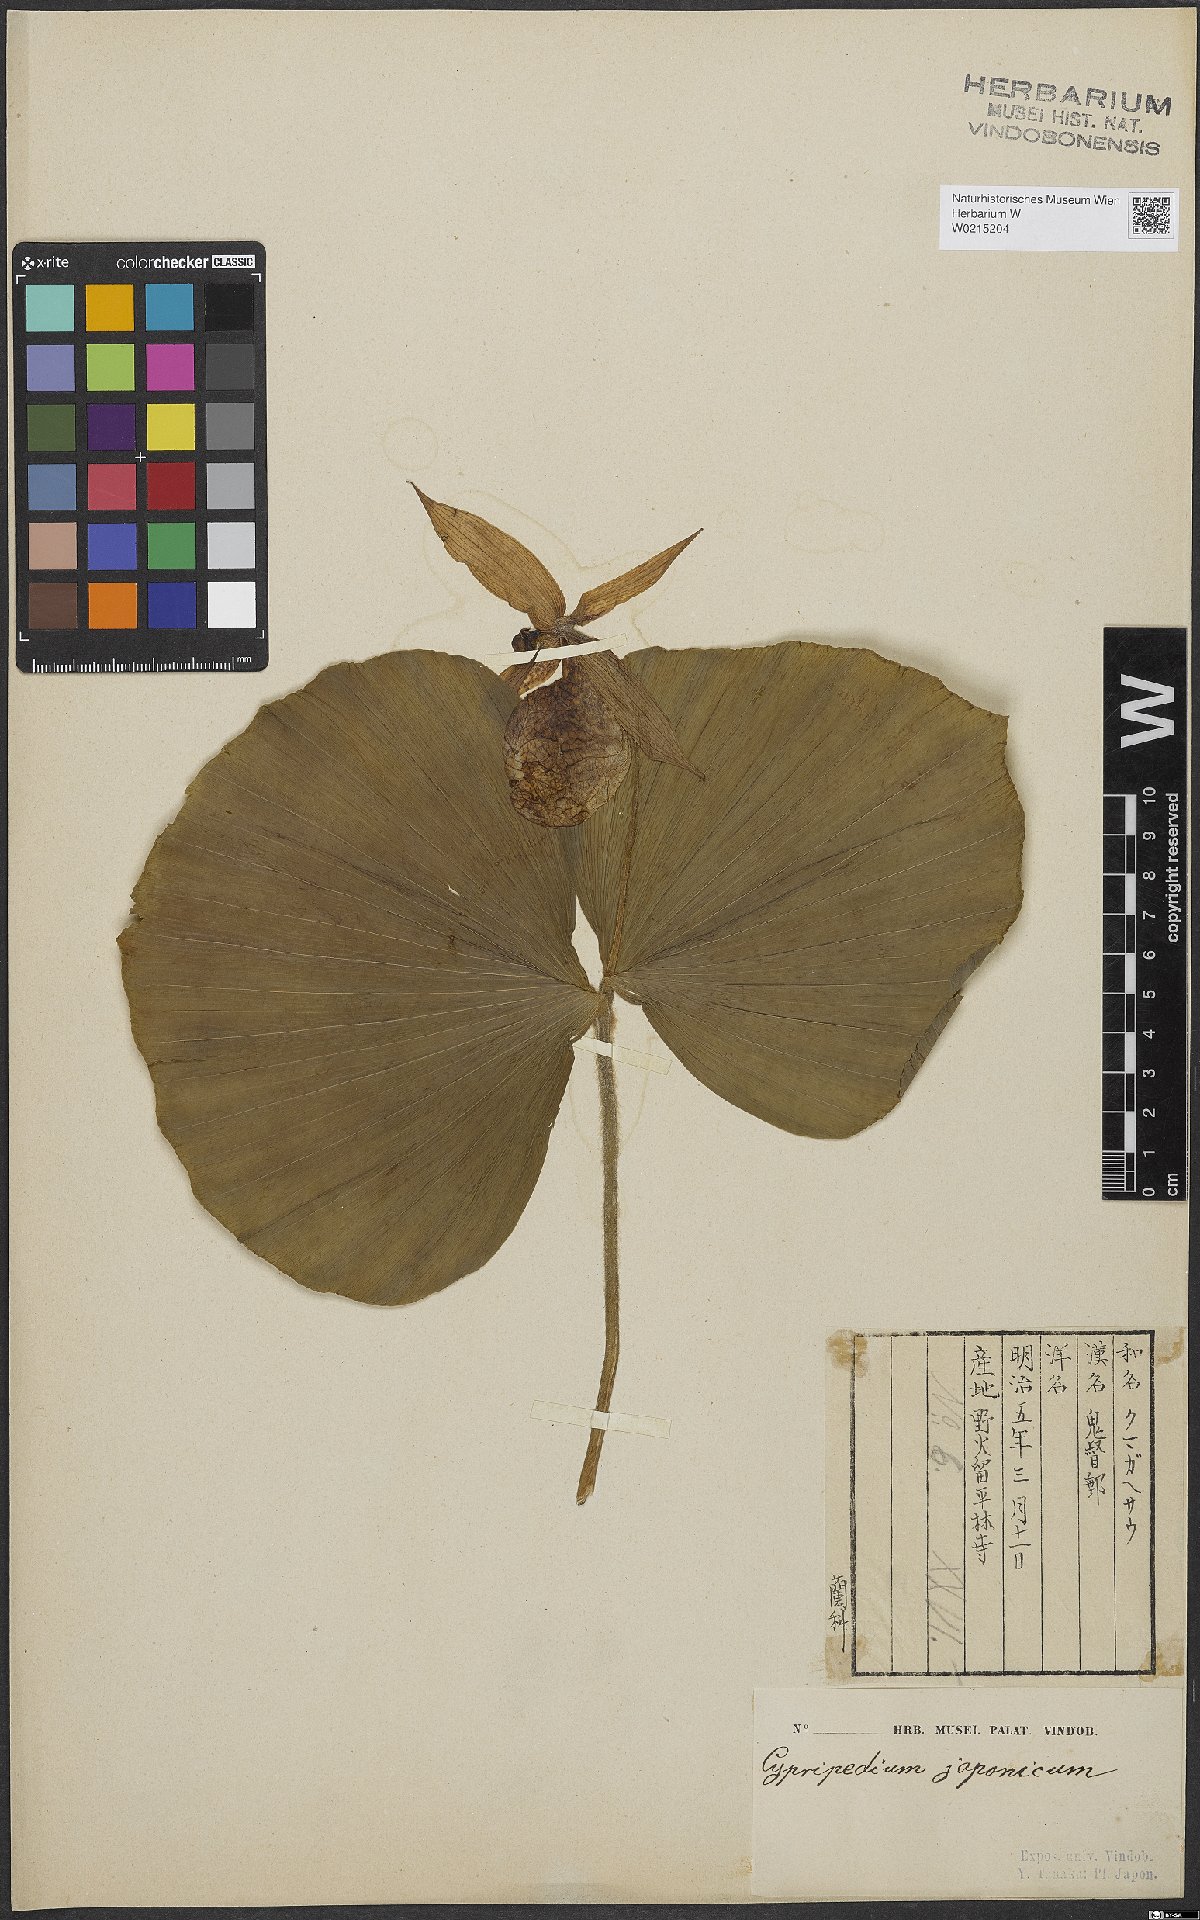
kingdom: Plantae
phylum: Tracheophyta
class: Liliopsida
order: Asparagales
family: Orchidaceae
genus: Cypripedium
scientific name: Cypripedium japonicum
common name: Japanese ladyslipper
